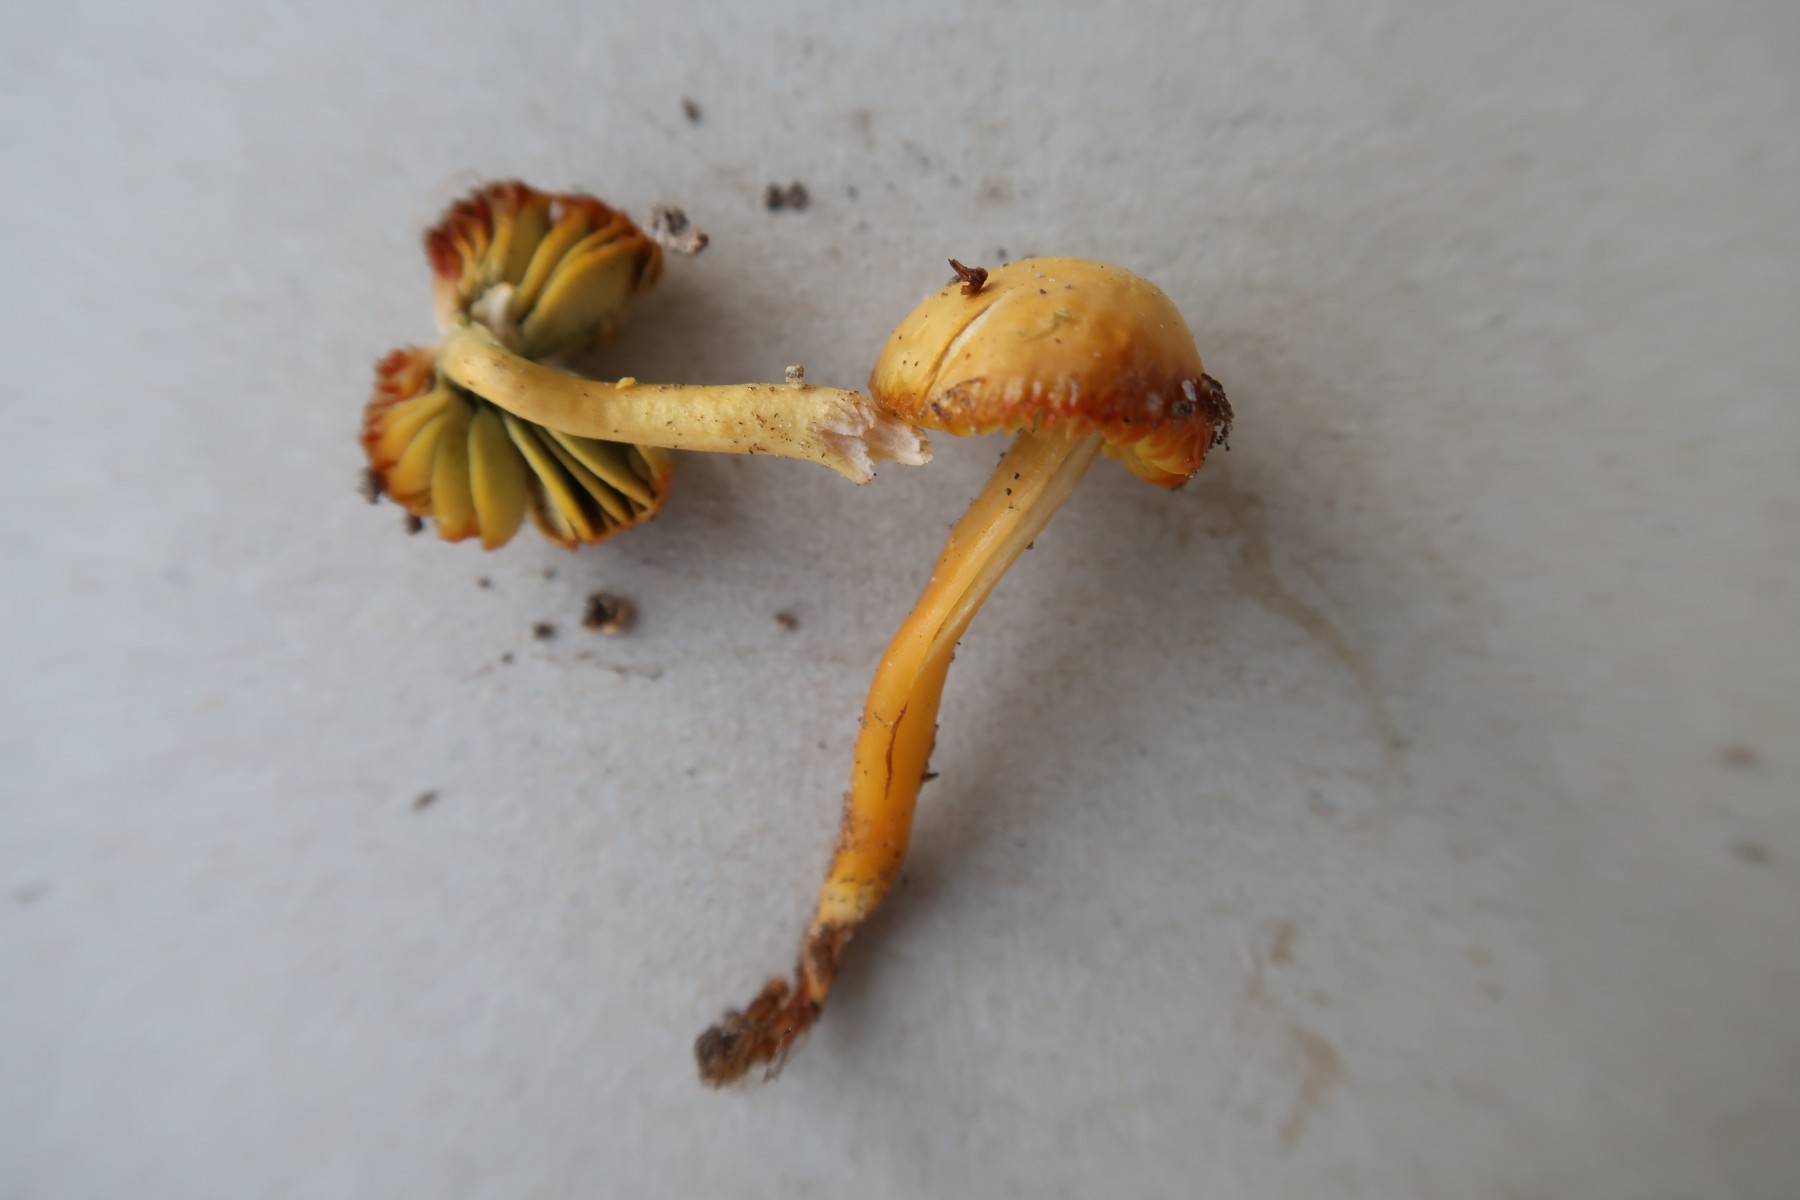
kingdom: Fungi
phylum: Basidiomycota
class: Agaricomycetes
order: Agaricales
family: Hygrophoraceae
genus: Gliophorus
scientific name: Gliophorus psittacinus
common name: papegøje-vokshat
